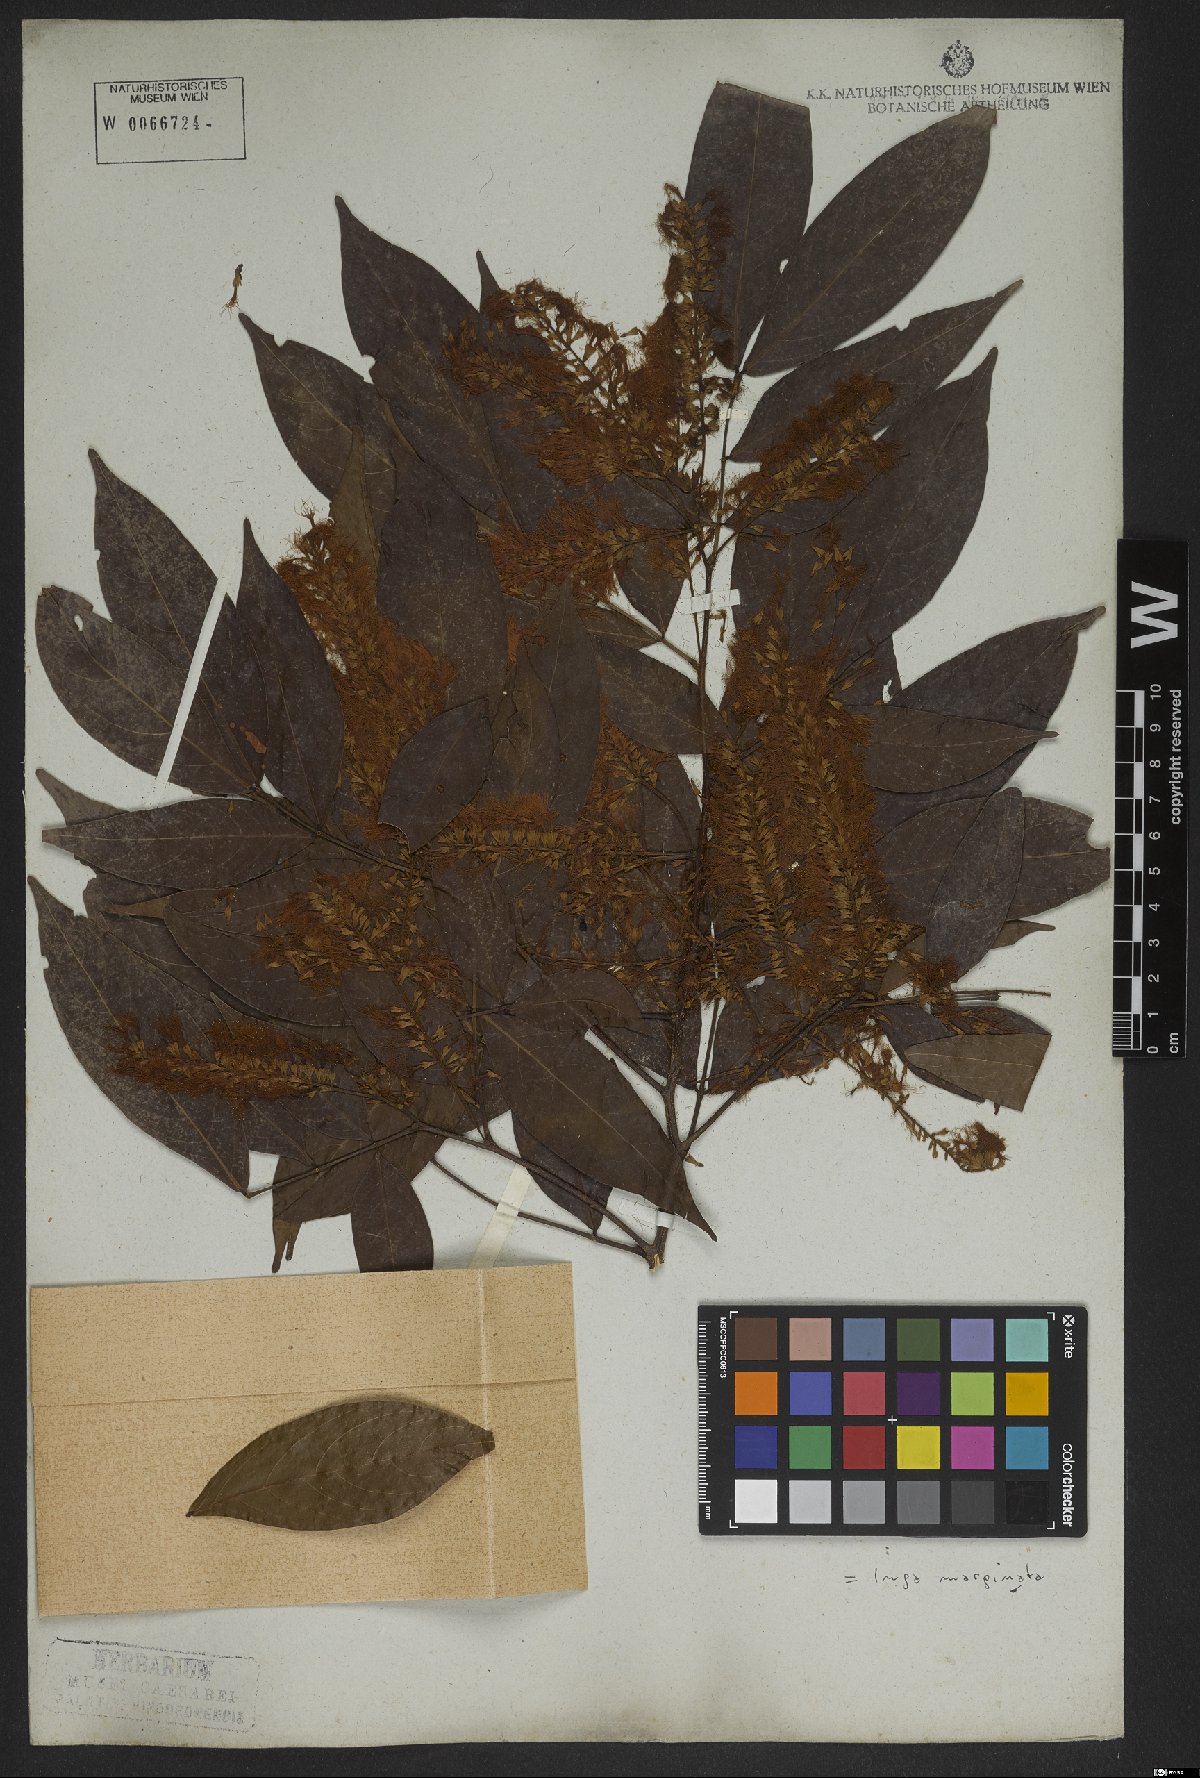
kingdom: Plantae
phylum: Tracheophyta
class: Magnoliopsida
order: Fabales
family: Fabaceae
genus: Inga
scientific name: Inga marginata
